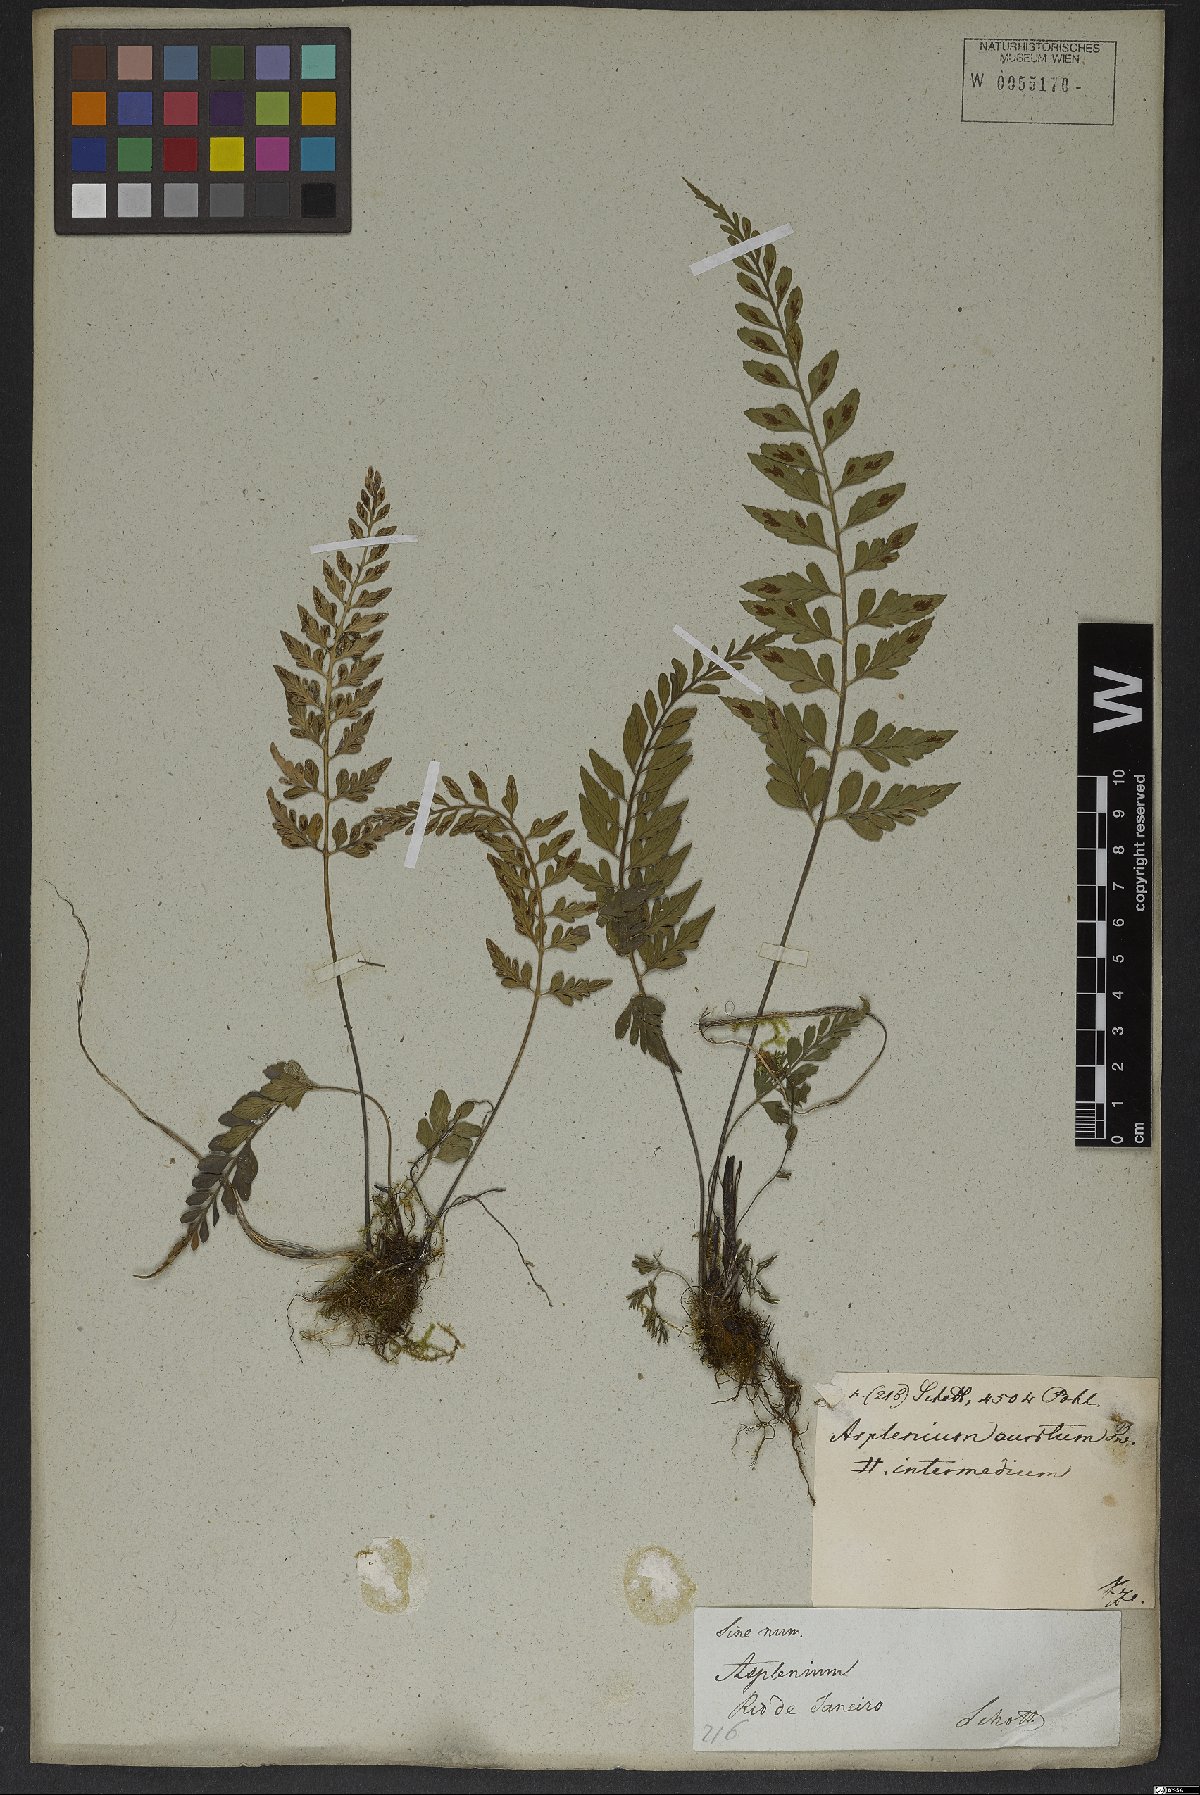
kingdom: Plantae
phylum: Tracheophyta
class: Polypodiopsida
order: Polypodiales
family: Aspleniaceae
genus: Asplenium
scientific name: Asplenium sulcatum
